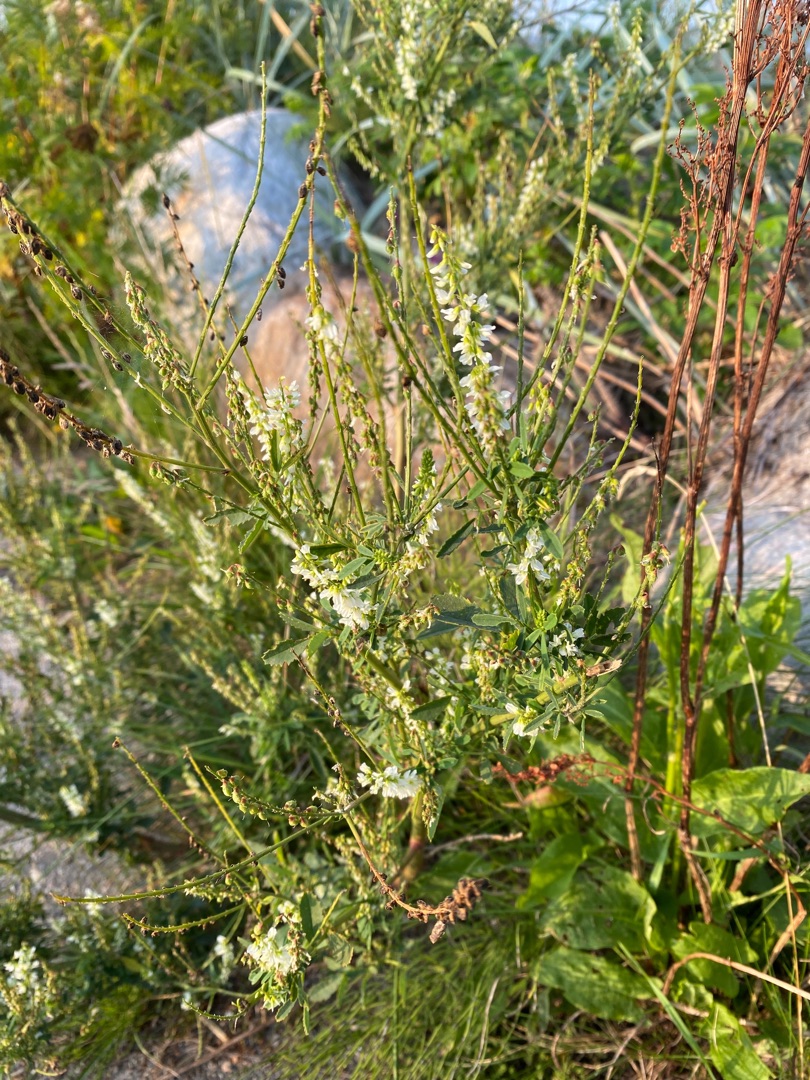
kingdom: Plantae
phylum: Tracheophyta
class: Magnoliopsida
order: Fabales
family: Fabaceae
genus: Melilotus
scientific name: Melilotus albus
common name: Hvid stenkløver
